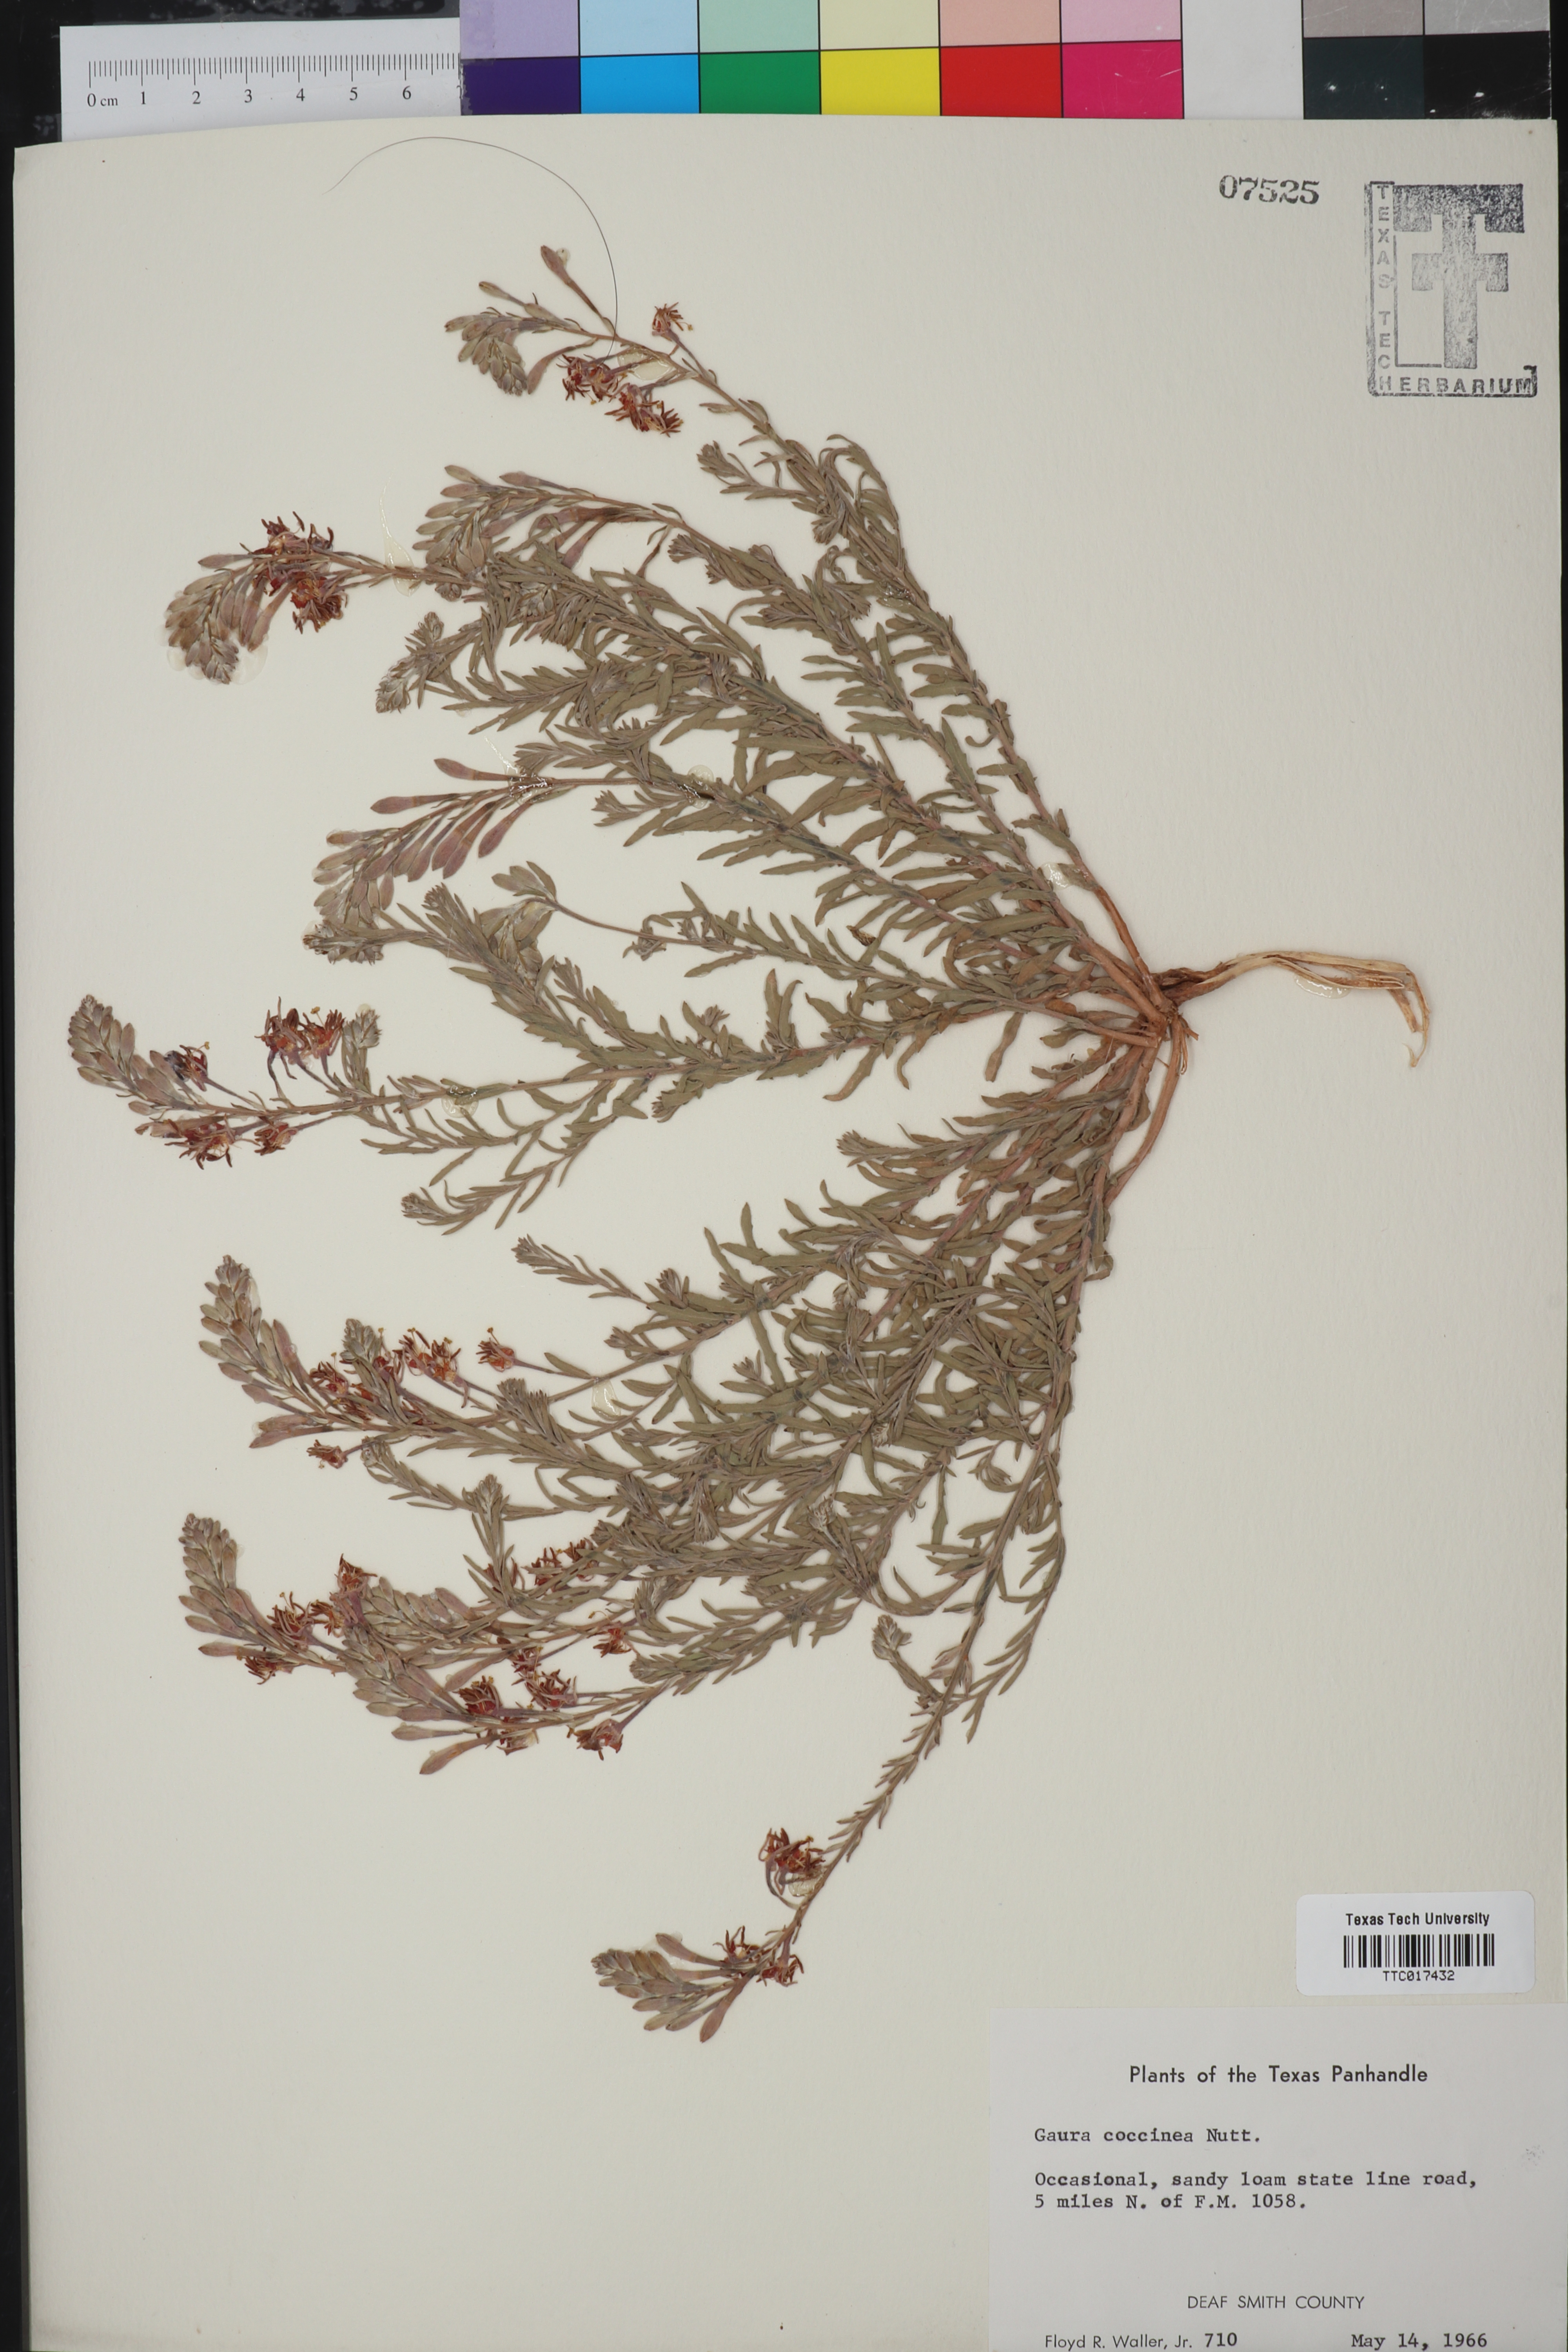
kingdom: Plantae
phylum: Tracheophyta
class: Magnoliopsida
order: Myrtales
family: Onagraceae
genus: Oenothera
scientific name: Oenothera suffrutescens
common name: Scarlet beeblossom
